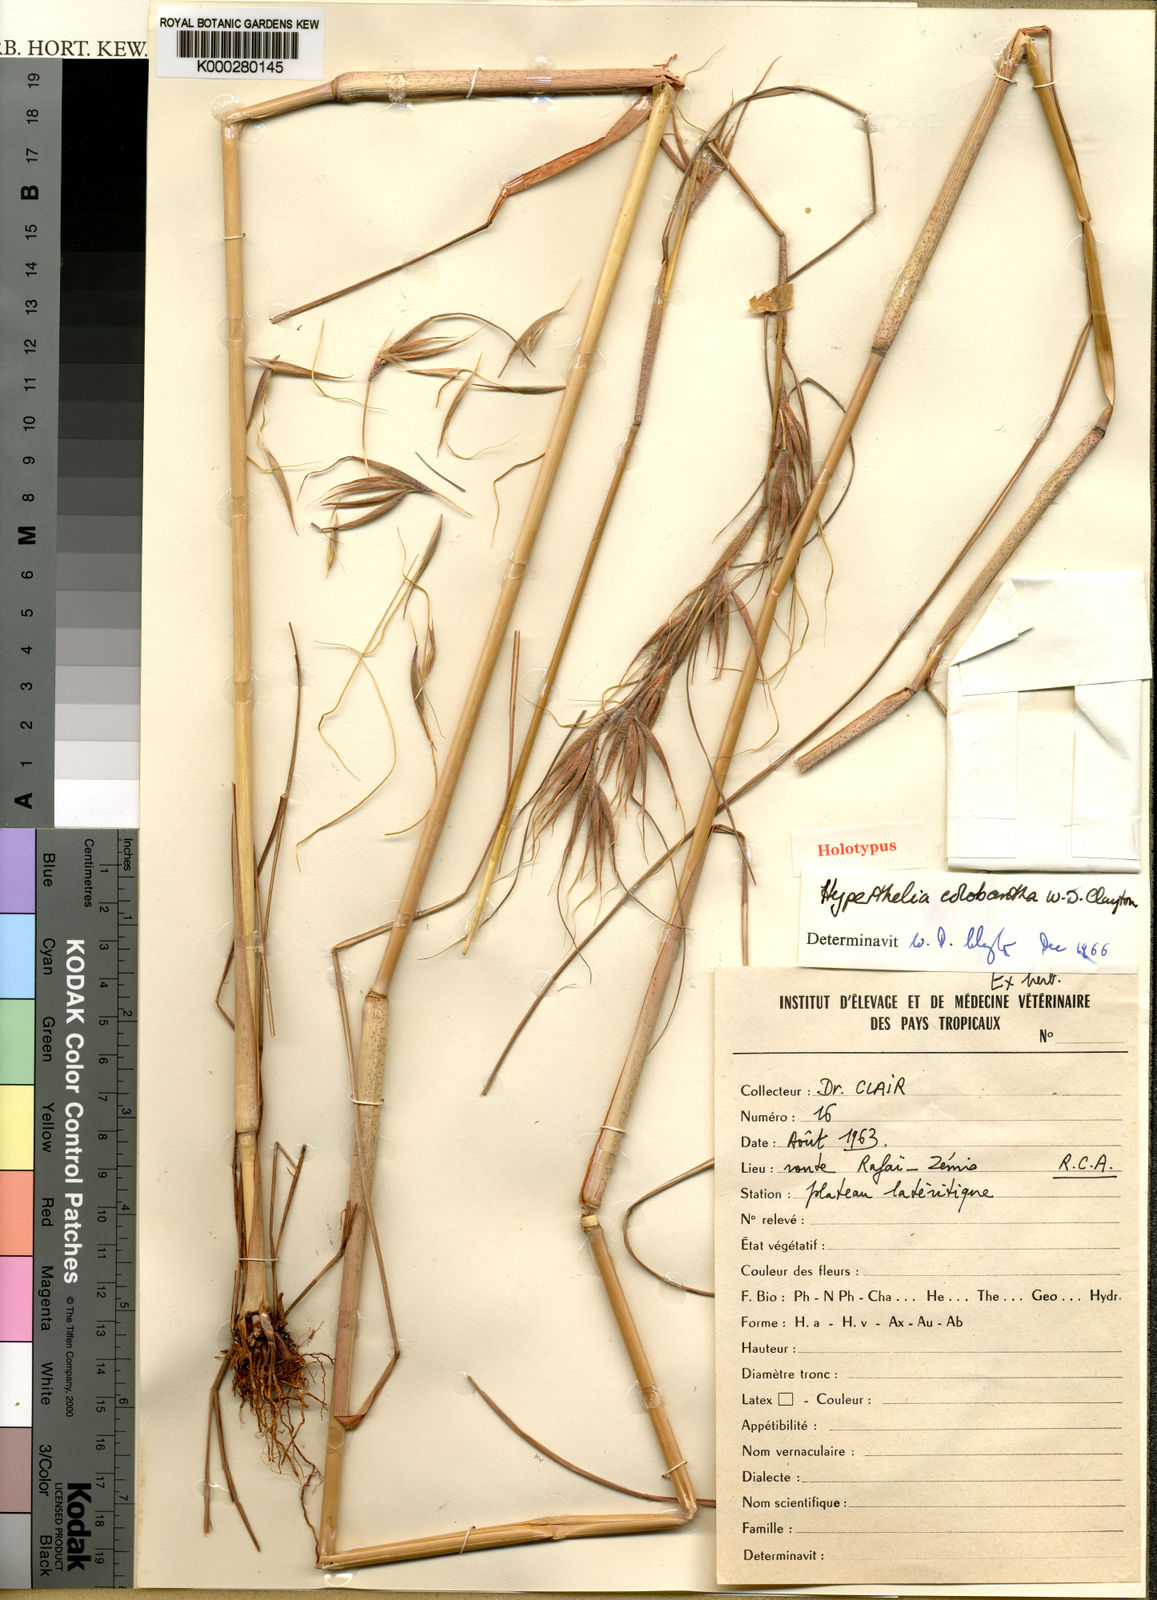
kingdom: Plantae
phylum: Tracheophyta
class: Liliopsida
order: Poales
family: Poaceae
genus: Hyperthelia
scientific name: Hyperthelia colobantha
